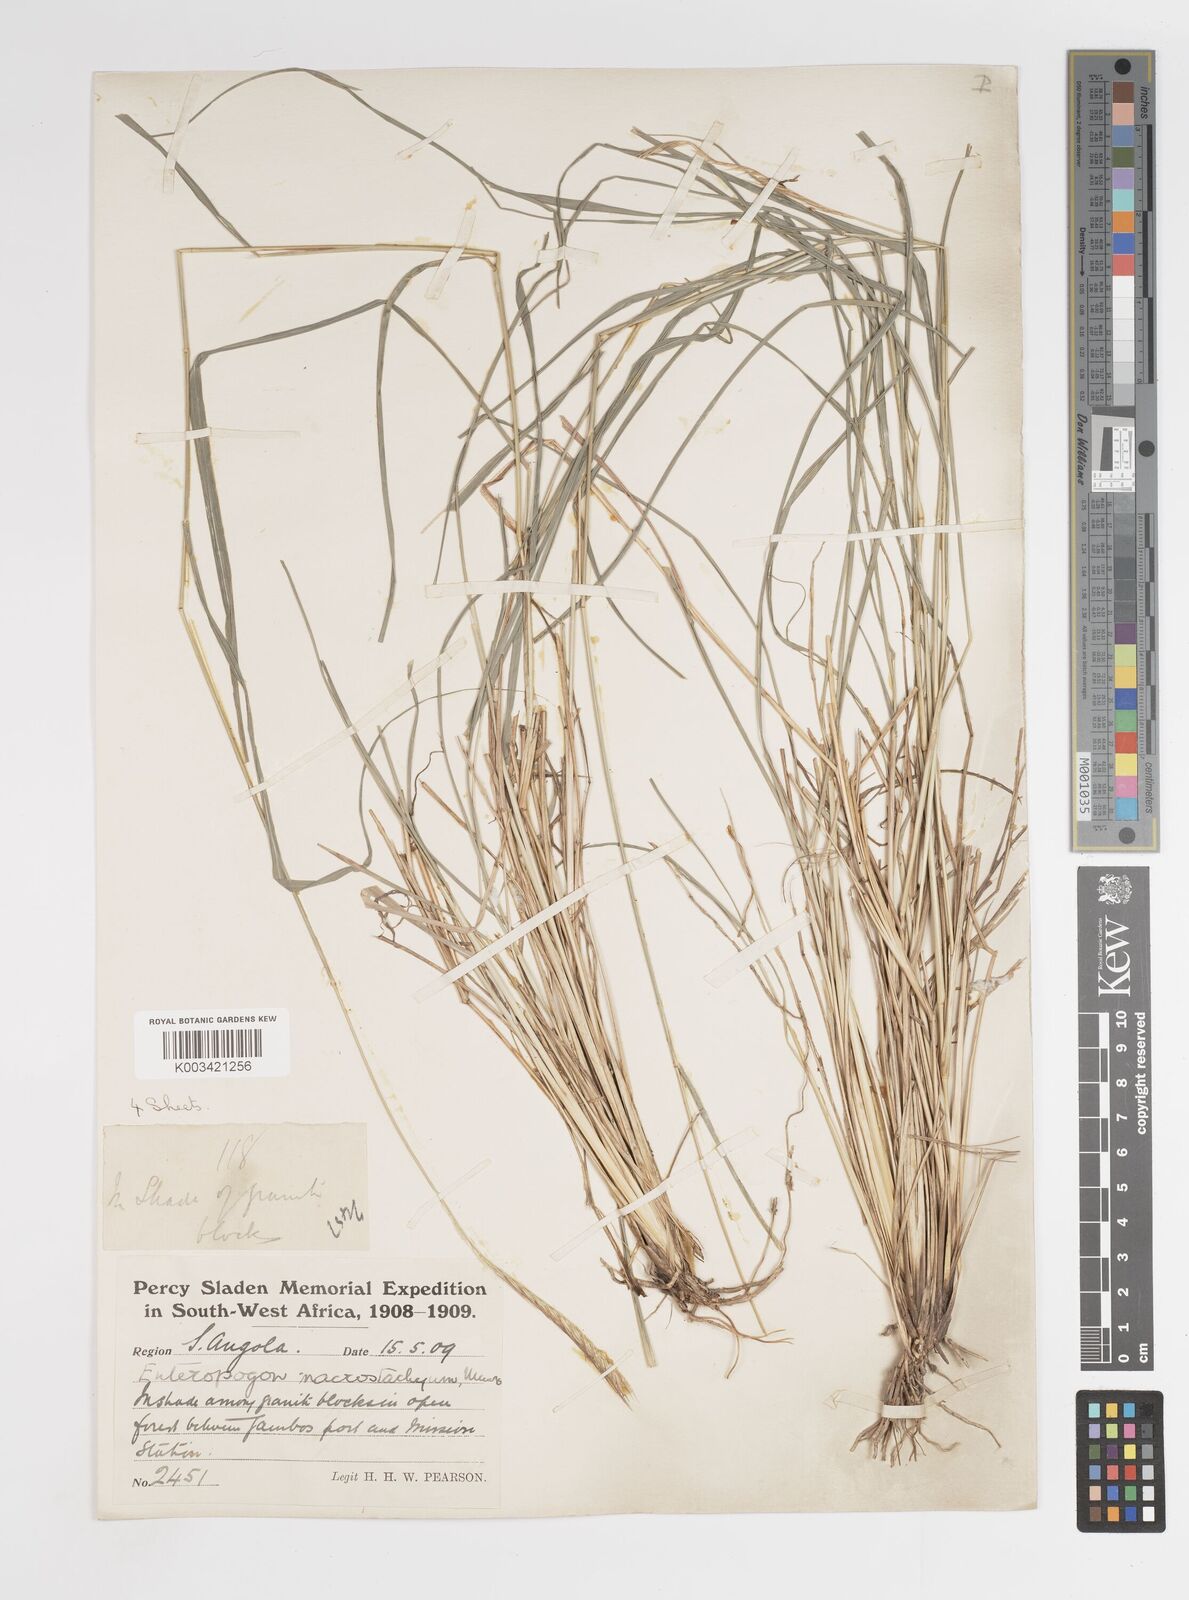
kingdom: Plantae
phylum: Tracheophyta
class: Liliopsida
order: Poales
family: Poaceae
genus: Enteropogon
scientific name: Enteropogon macrostachyus
